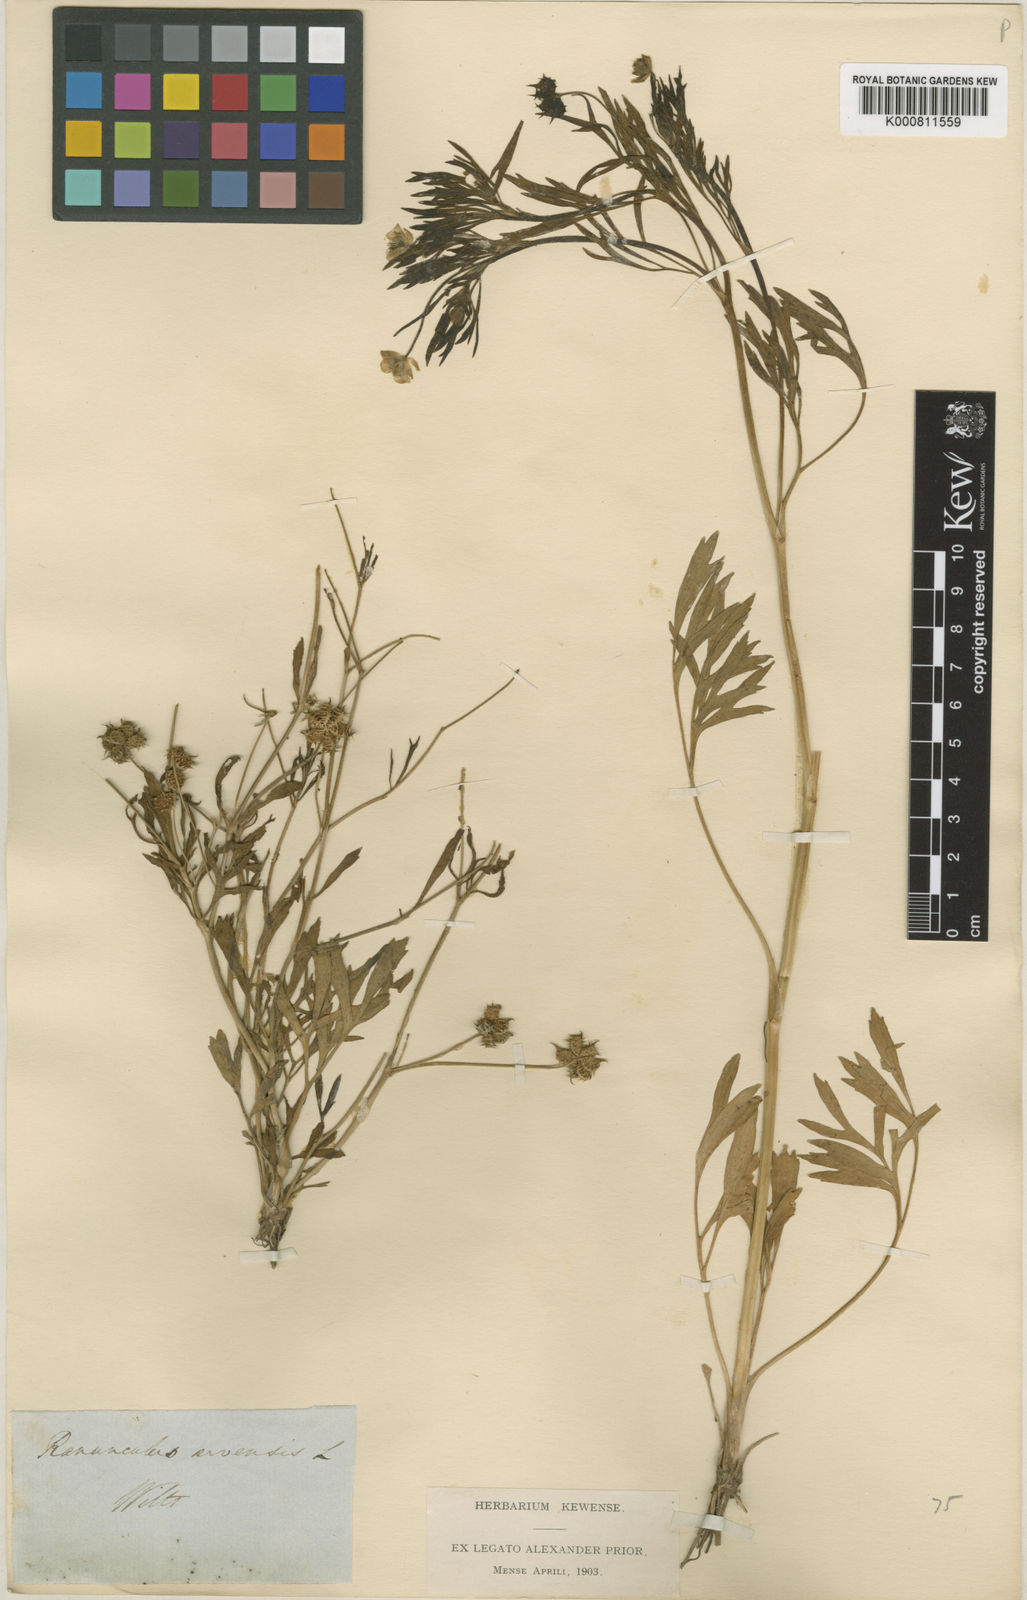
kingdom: Plantae
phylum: Tracheophyta
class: Magnoliopsida
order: Ranunculales
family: Ranunculaceae
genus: Ranunculus
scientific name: Ranunculus arvensis
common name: Corn buttercup
